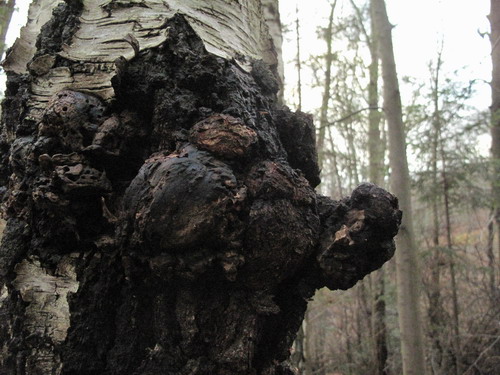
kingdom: Fungi
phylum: Basidiomycota
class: Agaricomycetes
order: Hymenochaetales
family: Hymenochaetaceae
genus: Inonotus
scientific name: Inonotus obliquus
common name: birke-spejlporesvamp
